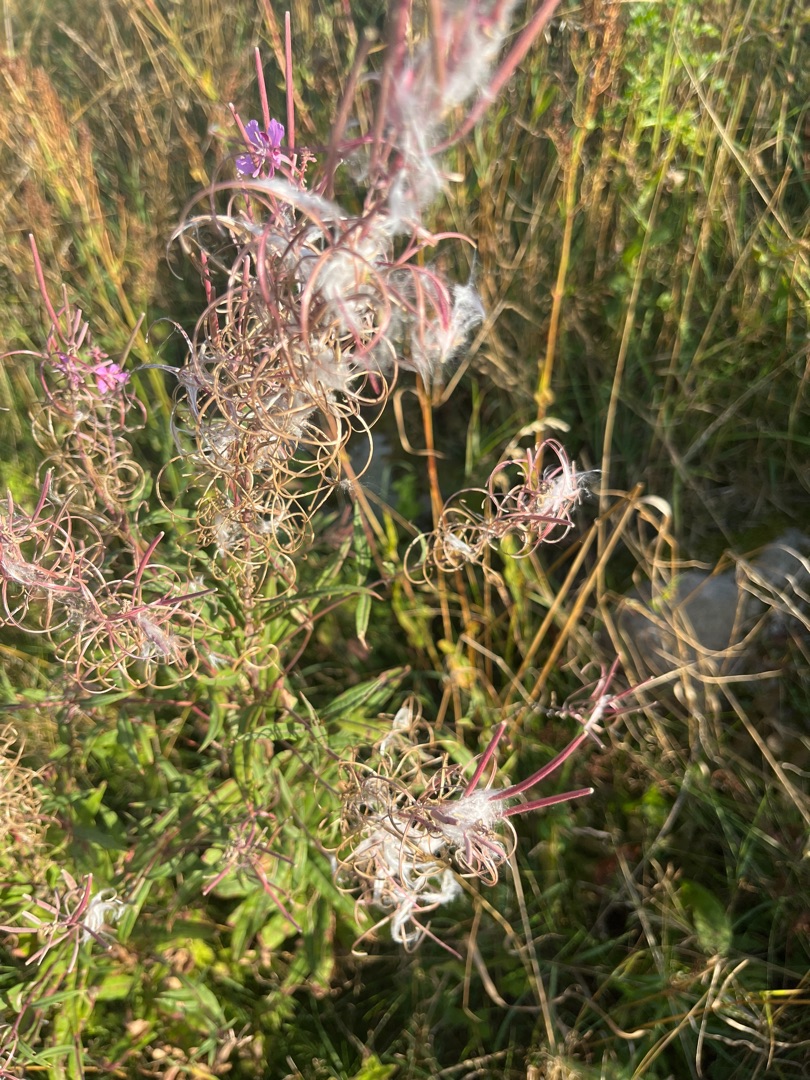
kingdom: Plantae
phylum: Tracheophyta
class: Magnoliopsida
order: Myrtales
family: Onagraceae
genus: Chamaenerion
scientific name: Chamaenerion angustifolium
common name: Gederams
